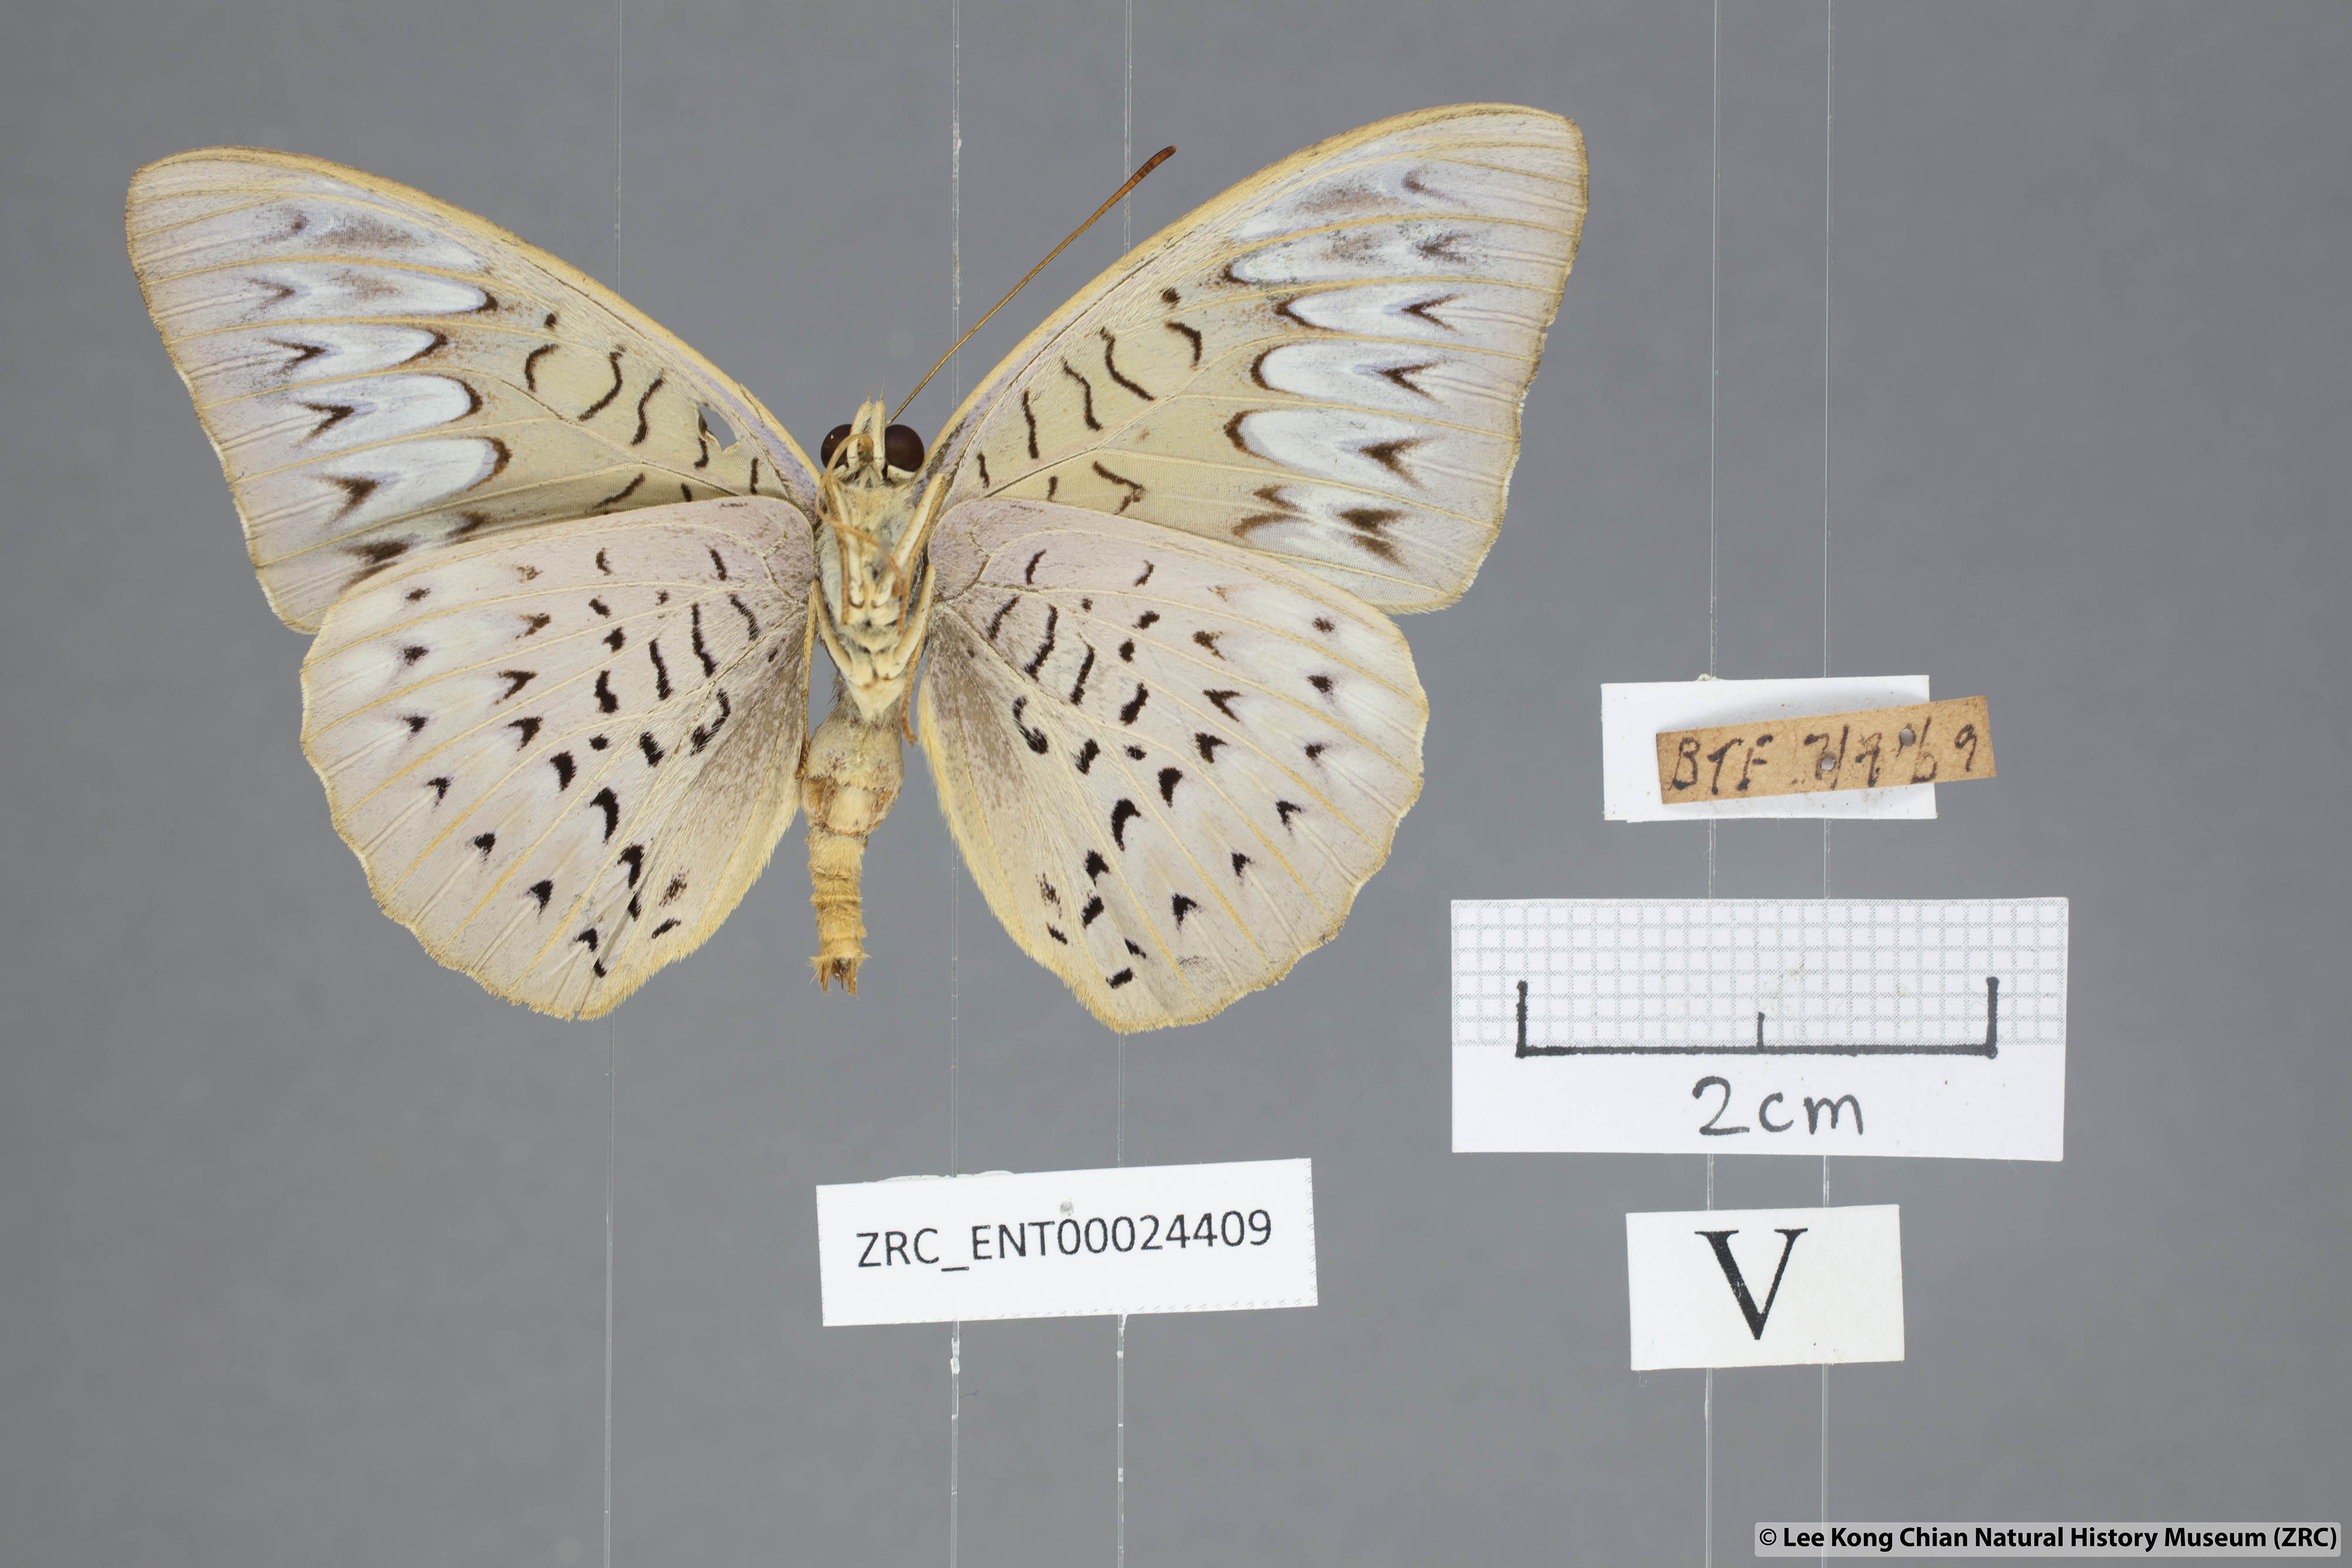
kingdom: Animalia
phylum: Arthropoda
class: Insecta
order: Lepidoptera
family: Nymphalidae
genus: Tanaecia
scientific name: Tanaecia pelea
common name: Malay viscount
